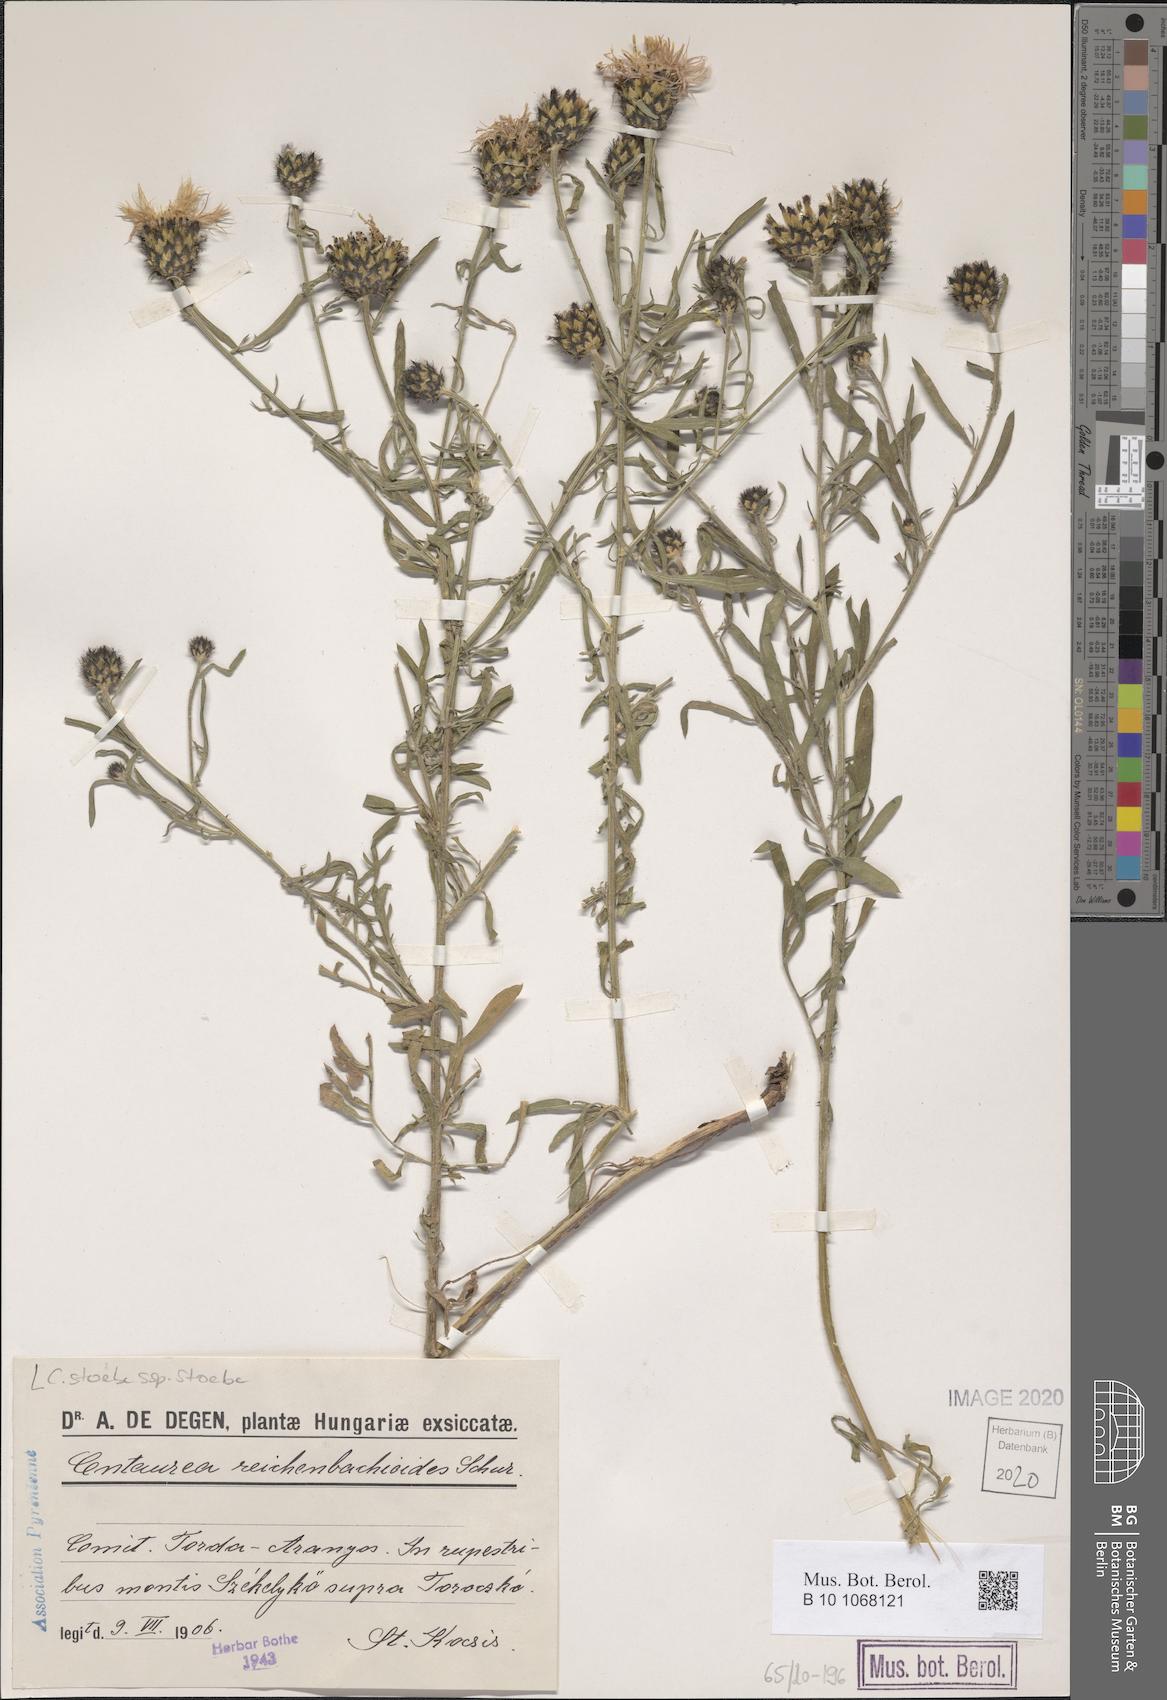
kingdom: Plantae
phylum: Tracheophyta
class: Magnoliopsida
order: Asterales
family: Asteraceae
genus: Centaurea
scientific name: Centaurea stoebe
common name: Spotted knapweed
